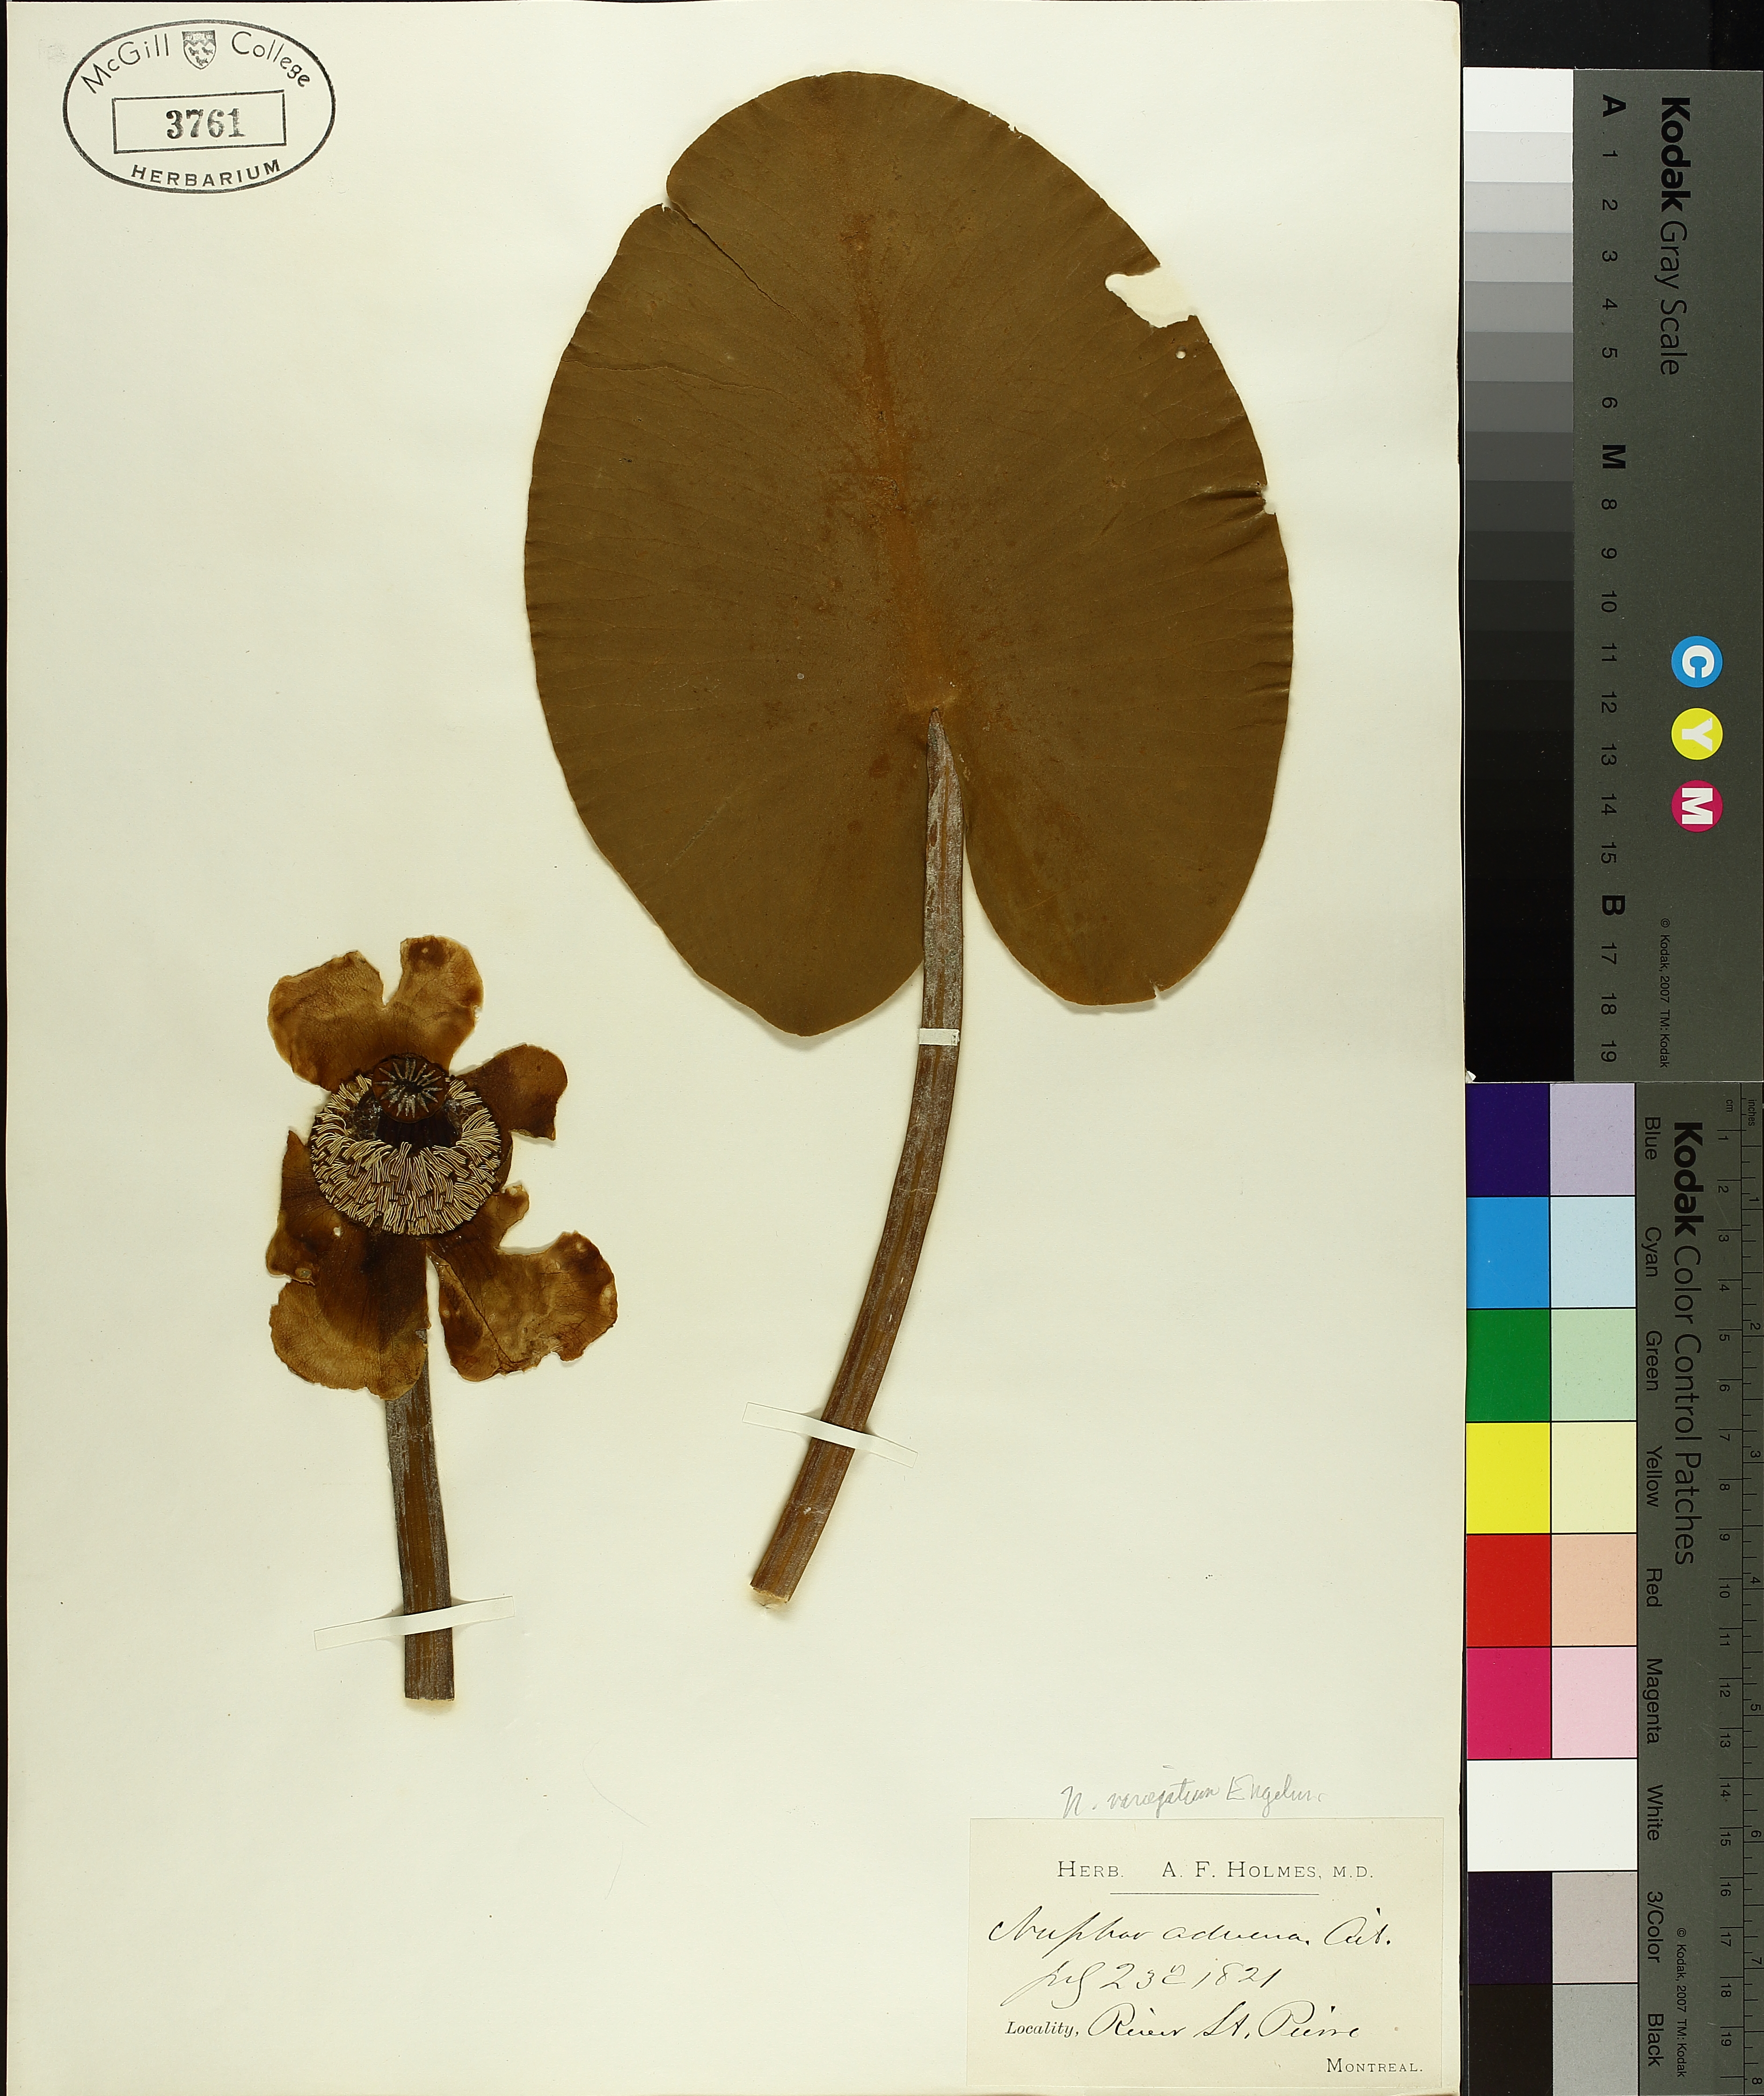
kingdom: Plantae
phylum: Tracheophyta
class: Magnoliopsida
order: Nymphaeales
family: Nymphaeaceae
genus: Nuphar
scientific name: Nuphar variegata
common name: Beaver-root
